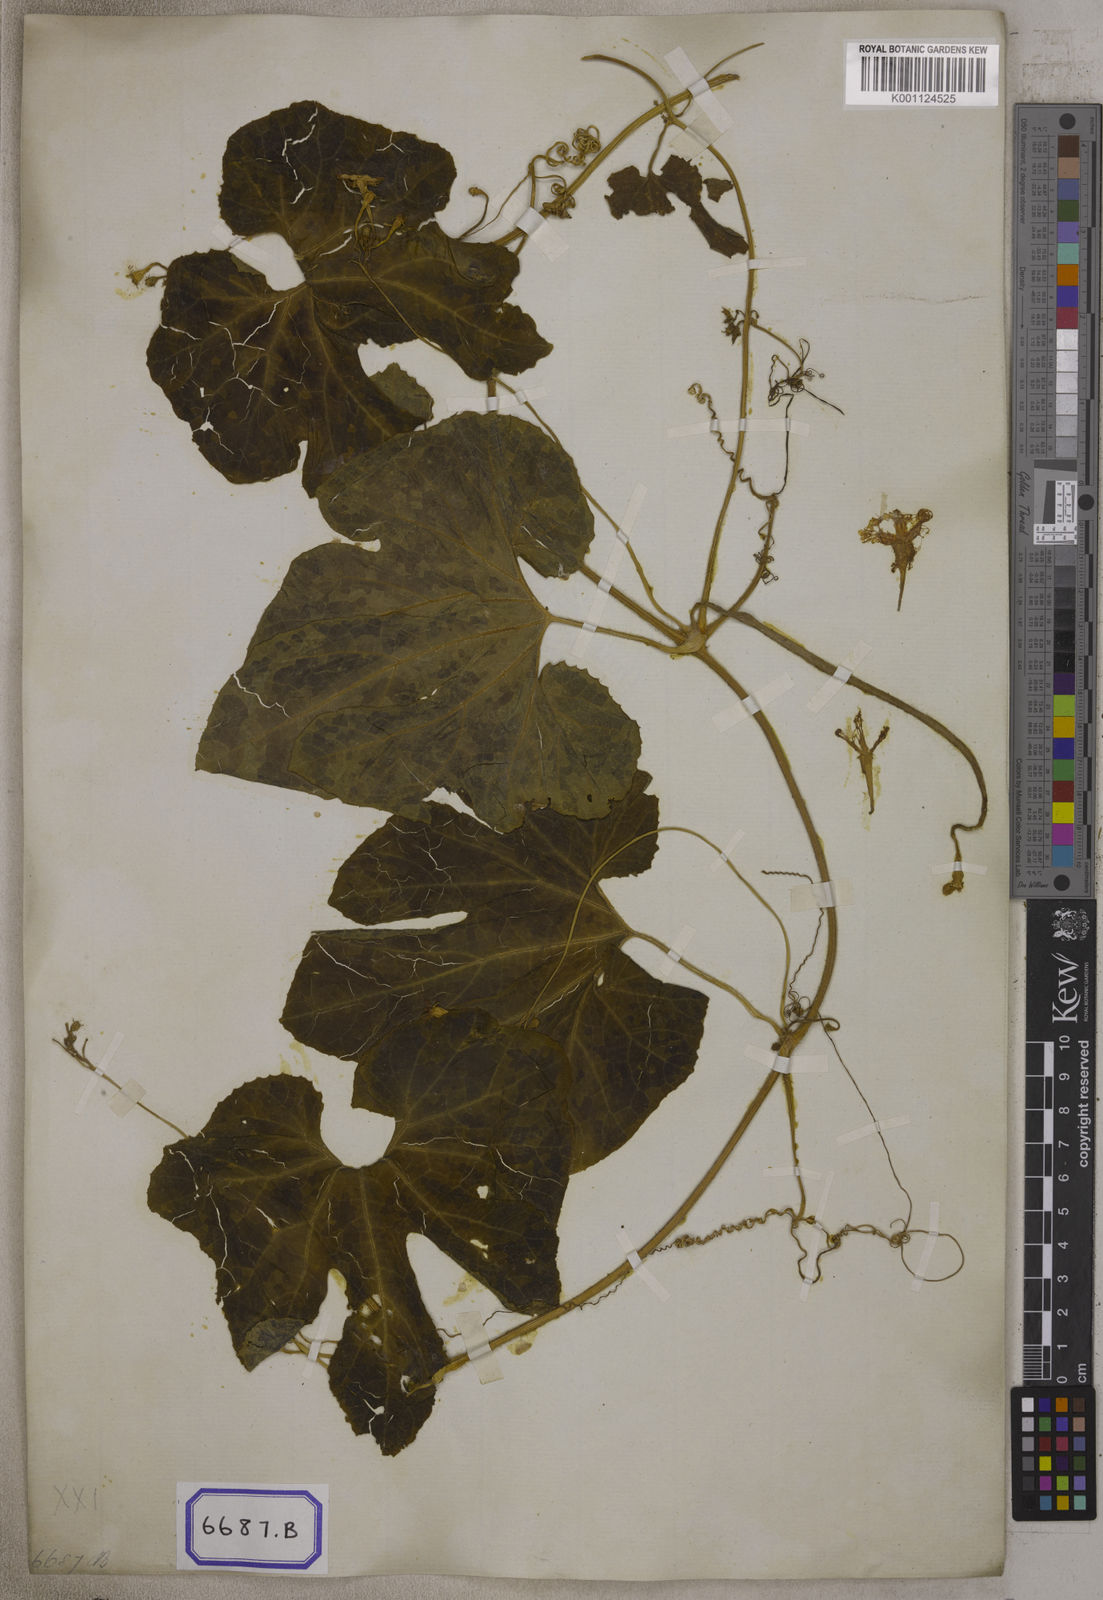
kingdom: Plantae
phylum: Tracheophyta
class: Magnoliopsida
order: Cucurbitales
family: Cucurbitaceae
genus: Trichosanthes
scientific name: Trichosanthes cucumerina
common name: Snakegourd
